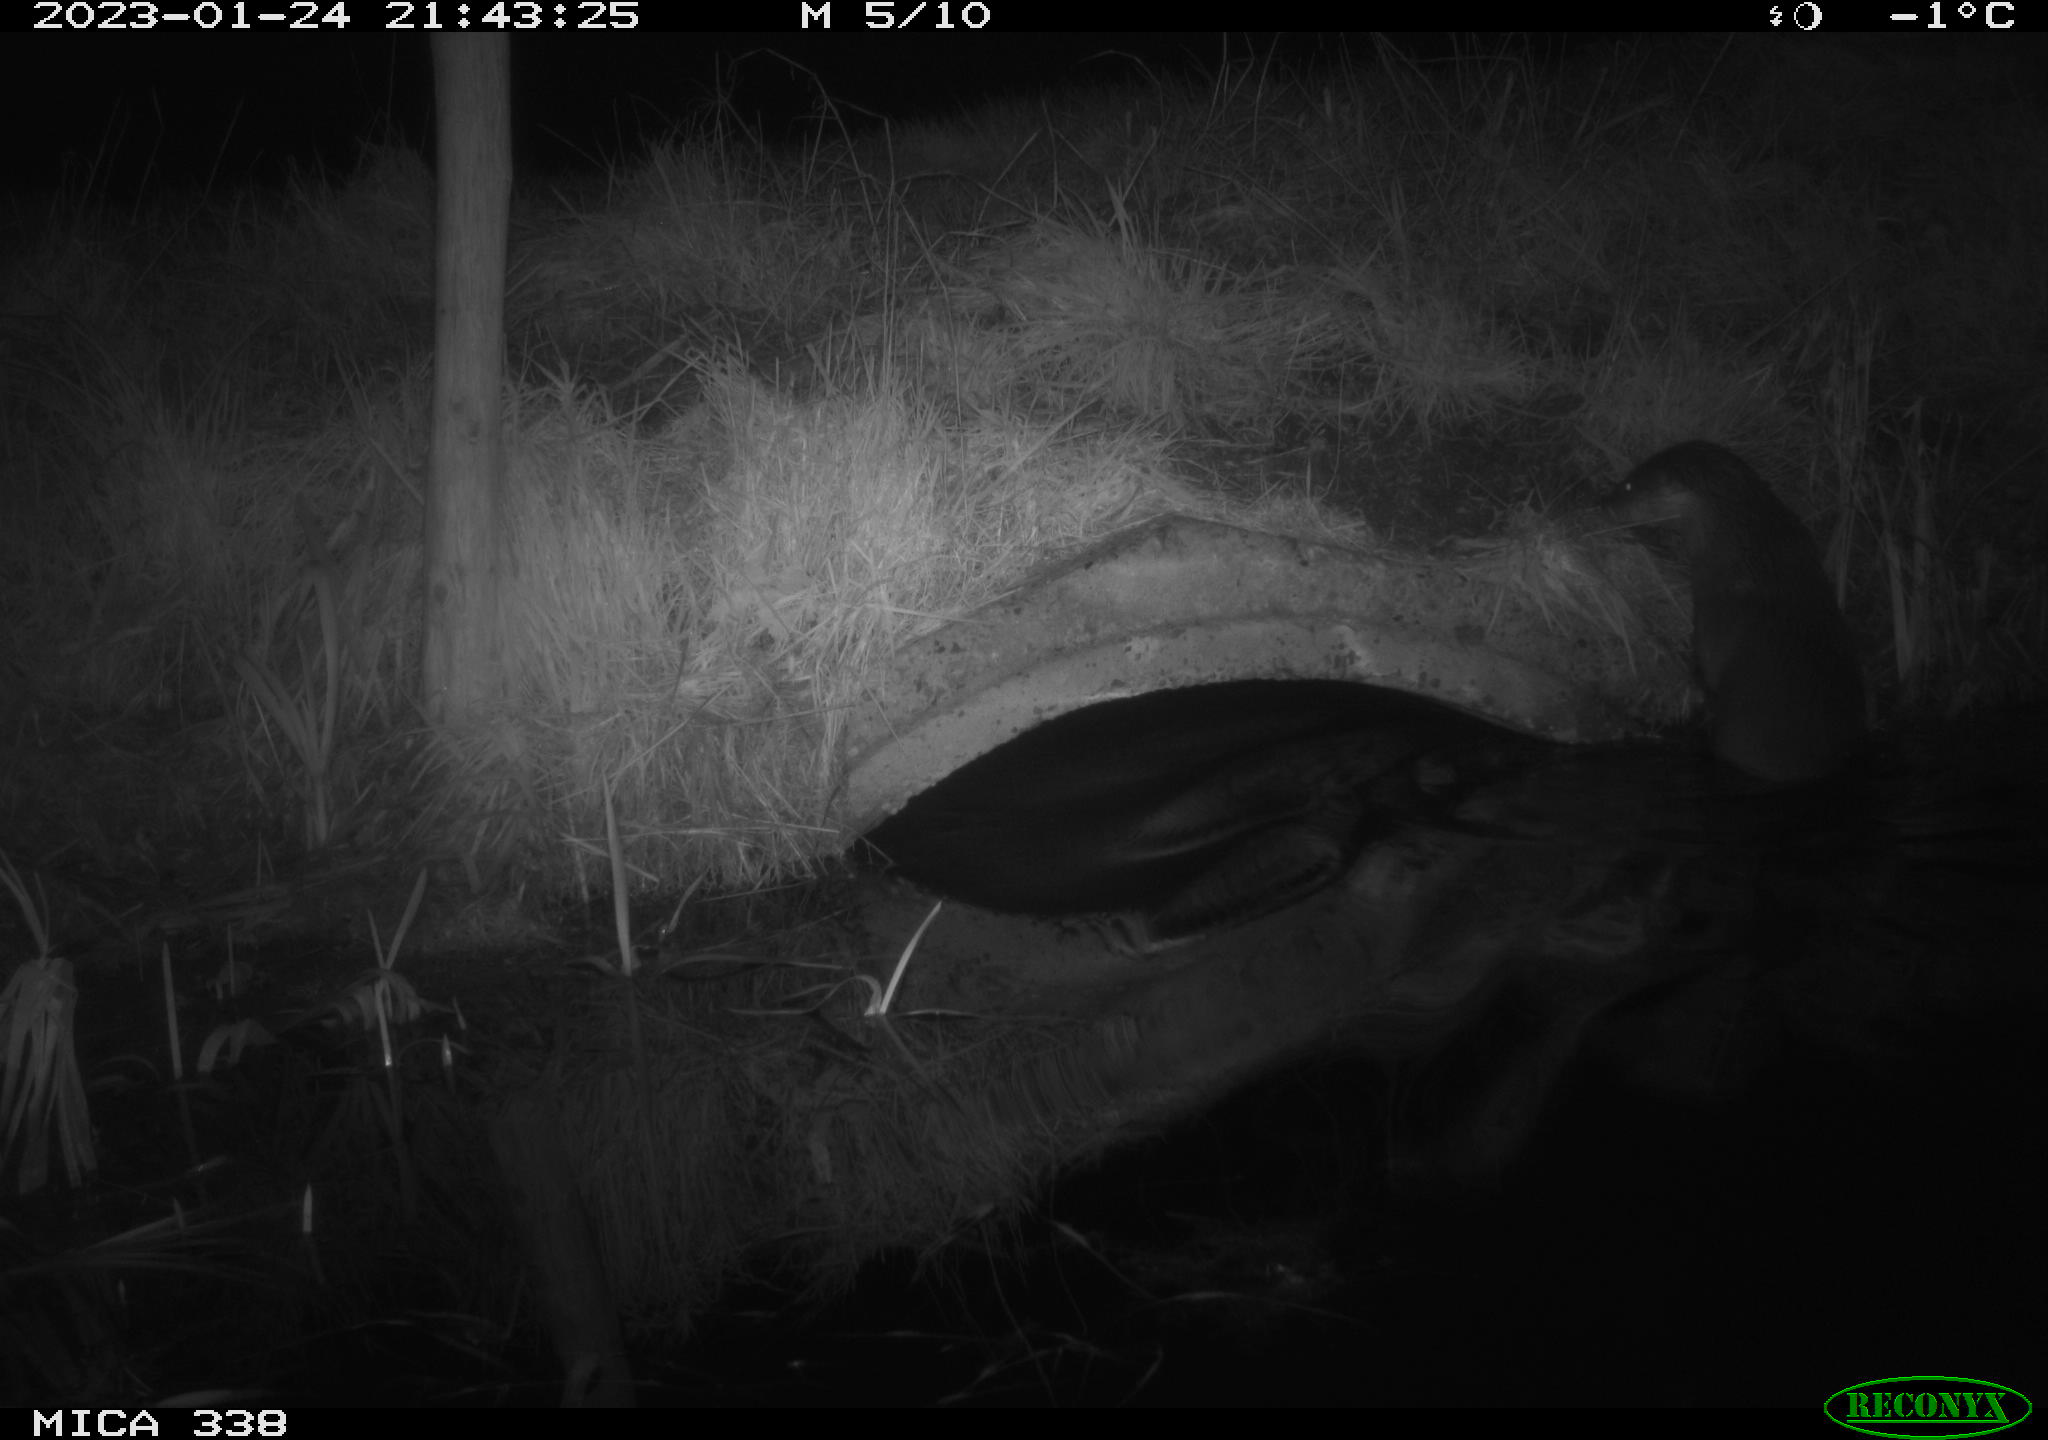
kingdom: Animalia
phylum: Chordata
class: Mammalia
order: Carnivora
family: Mustelidae
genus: Lutra
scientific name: Lutra lutra
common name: European otter
